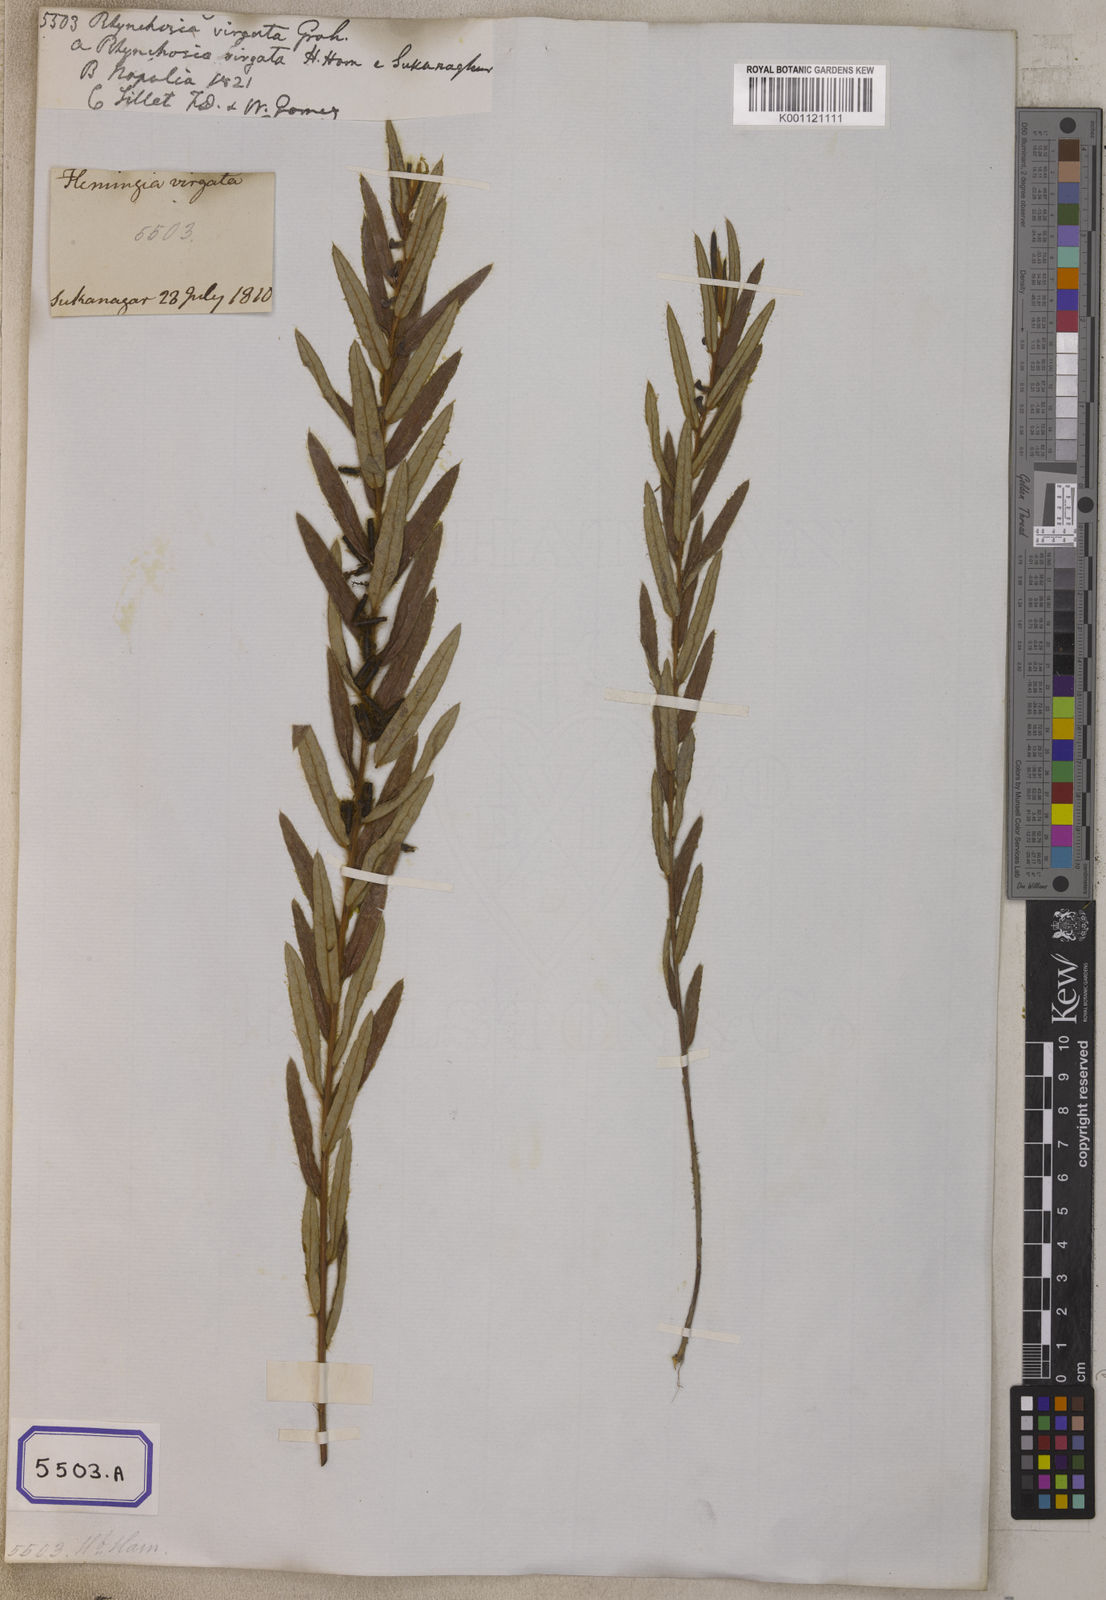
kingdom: Plantae
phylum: Tracheophyta
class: Magnoliopsida
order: Fabales
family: Fabaceae
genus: Eriosema
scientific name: Eriosema chinense
